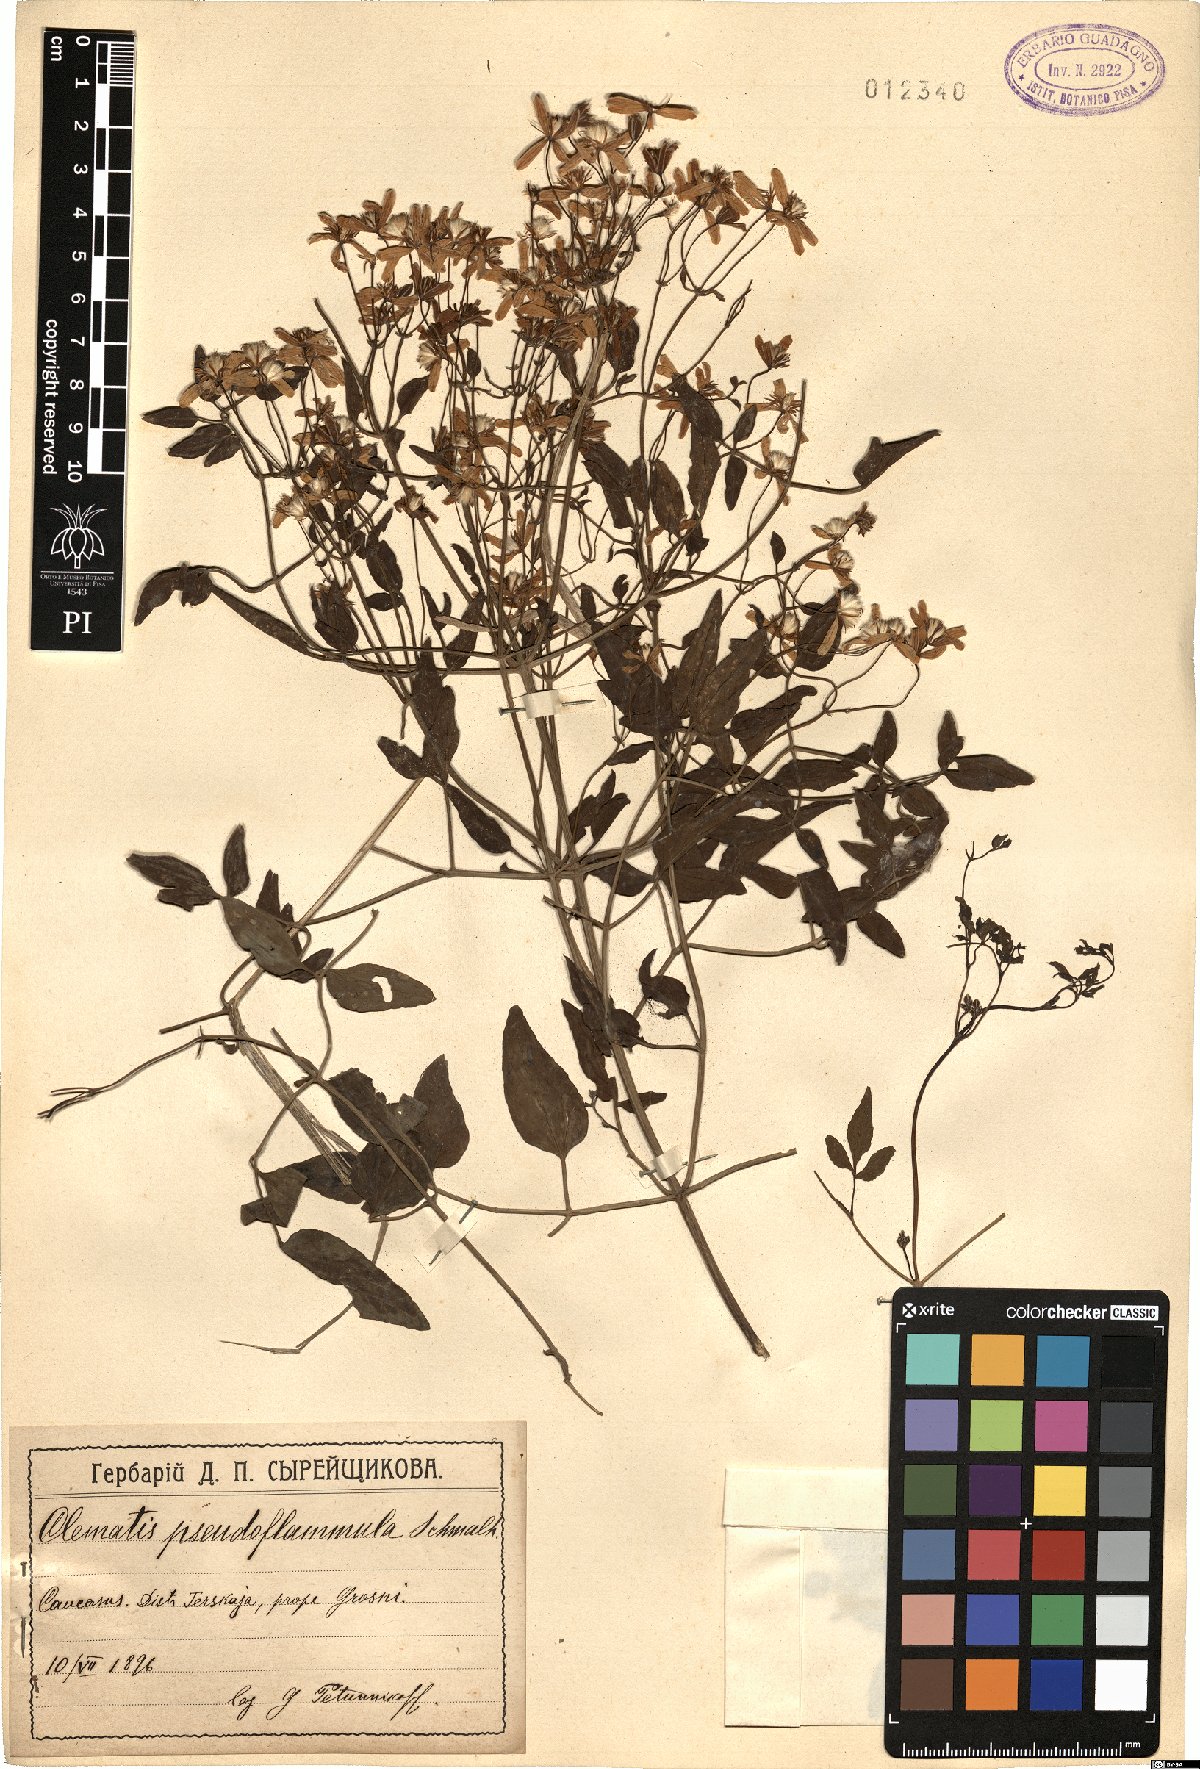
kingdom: Plantae
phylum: Tracheophyta
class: Magnoliopsida
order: Ranunculales
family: Ranunculaceae
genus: Clematis
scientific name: Clematis lathyrifolia
